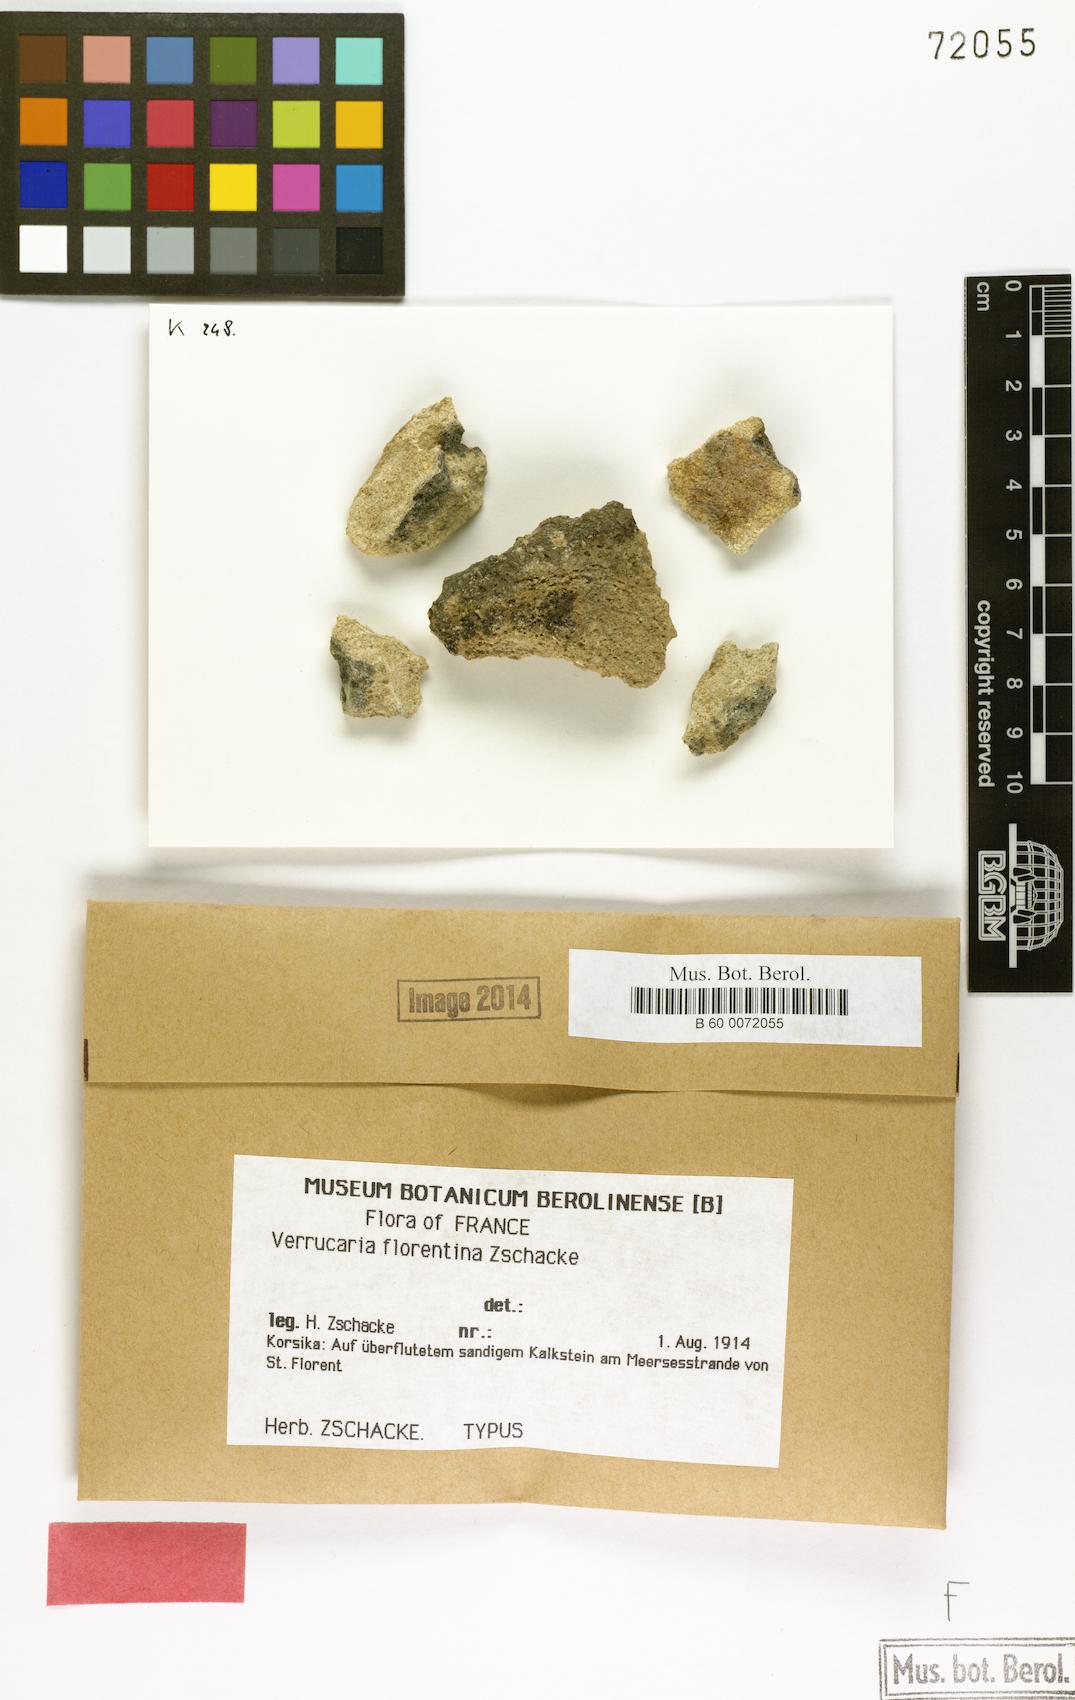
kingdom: Fungi
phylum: Ascomycota
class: Eurotiomycetes
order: Verrucariales
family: Verrucariaceae
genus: Verrucaria
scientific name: Verrucaria florentina
